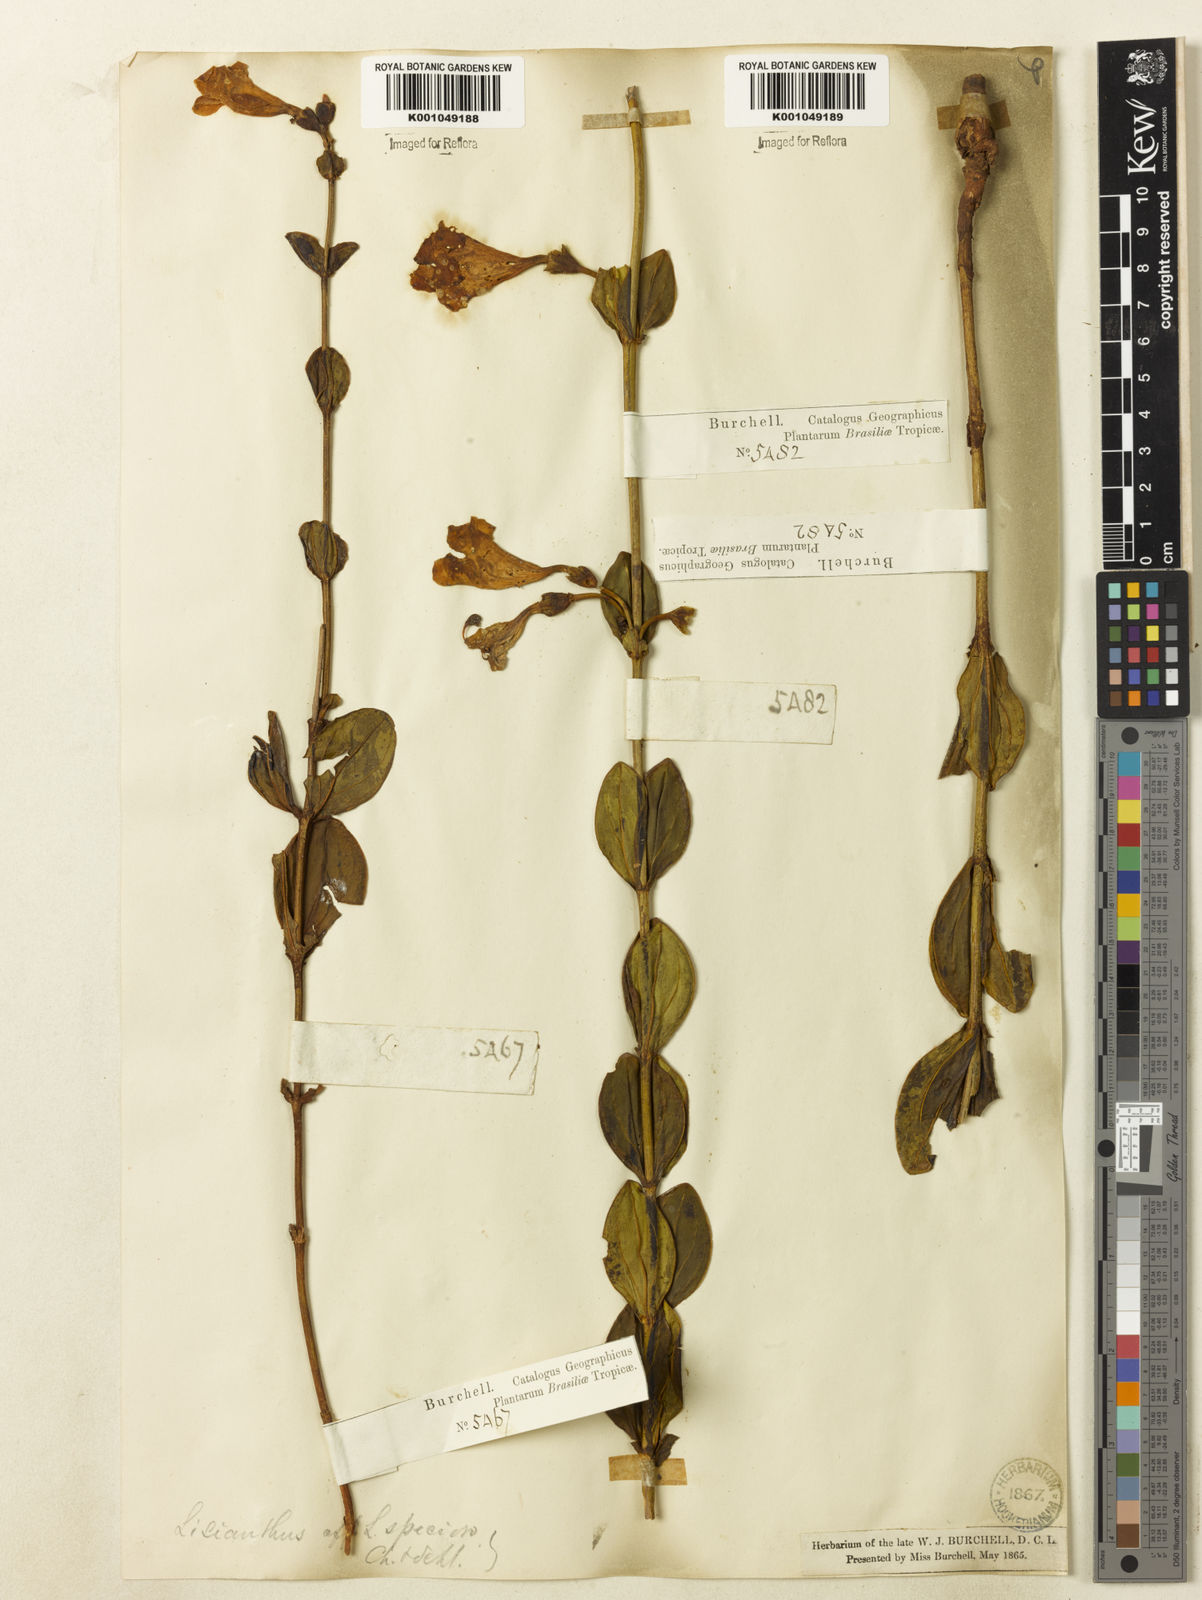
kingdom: Plantae
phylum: Tracheophyta
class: Magnoliopsida
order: Gentianales
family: Gentianaceae
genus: Calolisianthus
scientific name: Calolisianthus amplissimus
